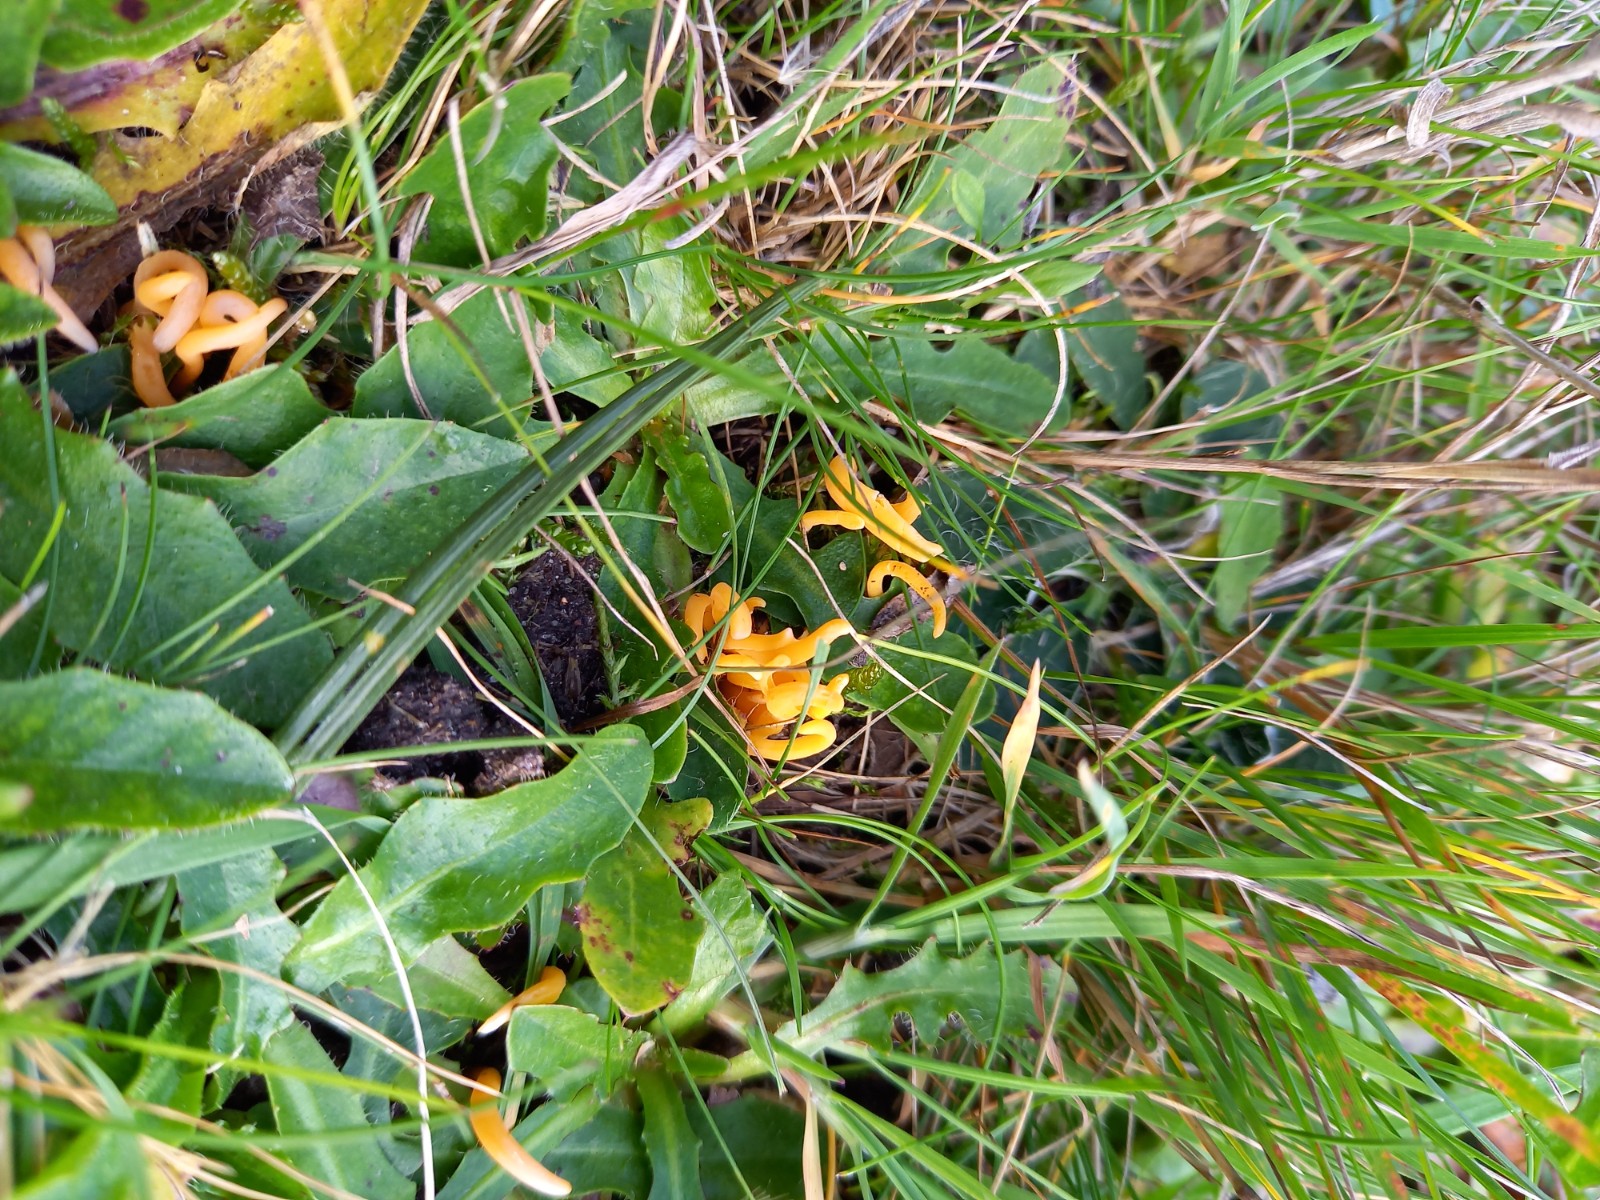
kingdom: Fungi
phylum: Basidiomycota
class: Agaricomycetes
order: Agaricales
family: Clavariaceae
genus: Clavulinopsis
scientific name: Clavulinopsis luteoalba
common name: abrikos-køllesvamp
